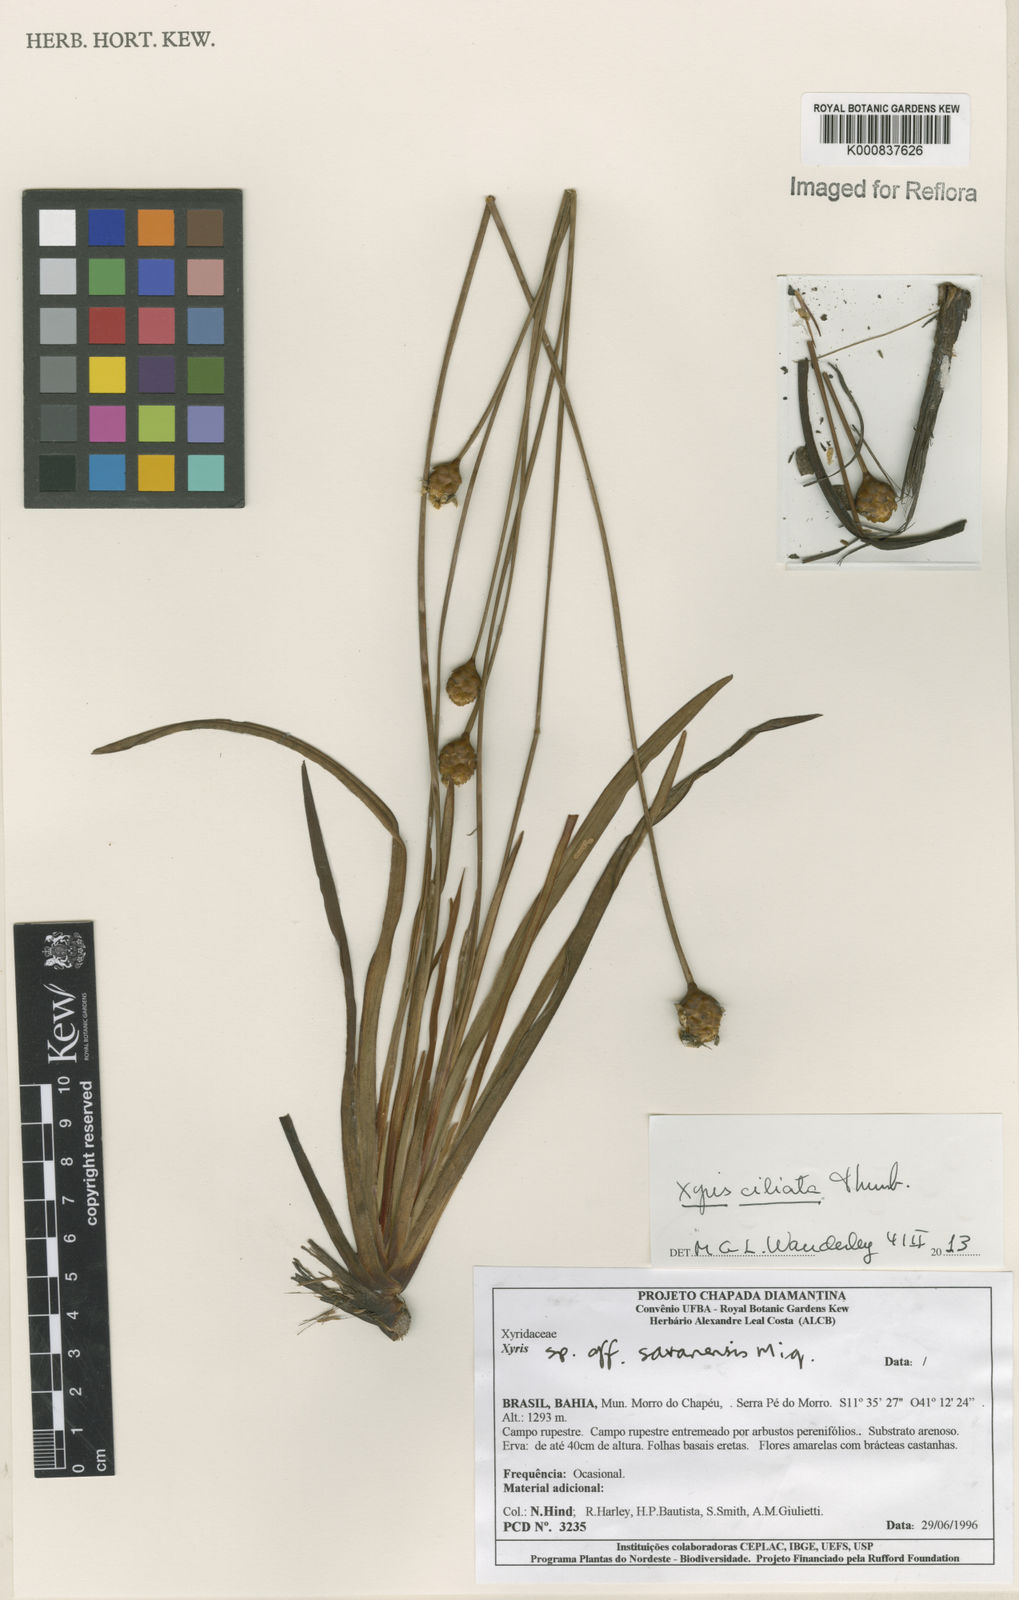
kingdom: Plantae
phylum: Tracheophyta
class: Liliopsida
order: Poales
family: Xyridaceae
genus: Xyris
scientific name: Xyris ciliata
